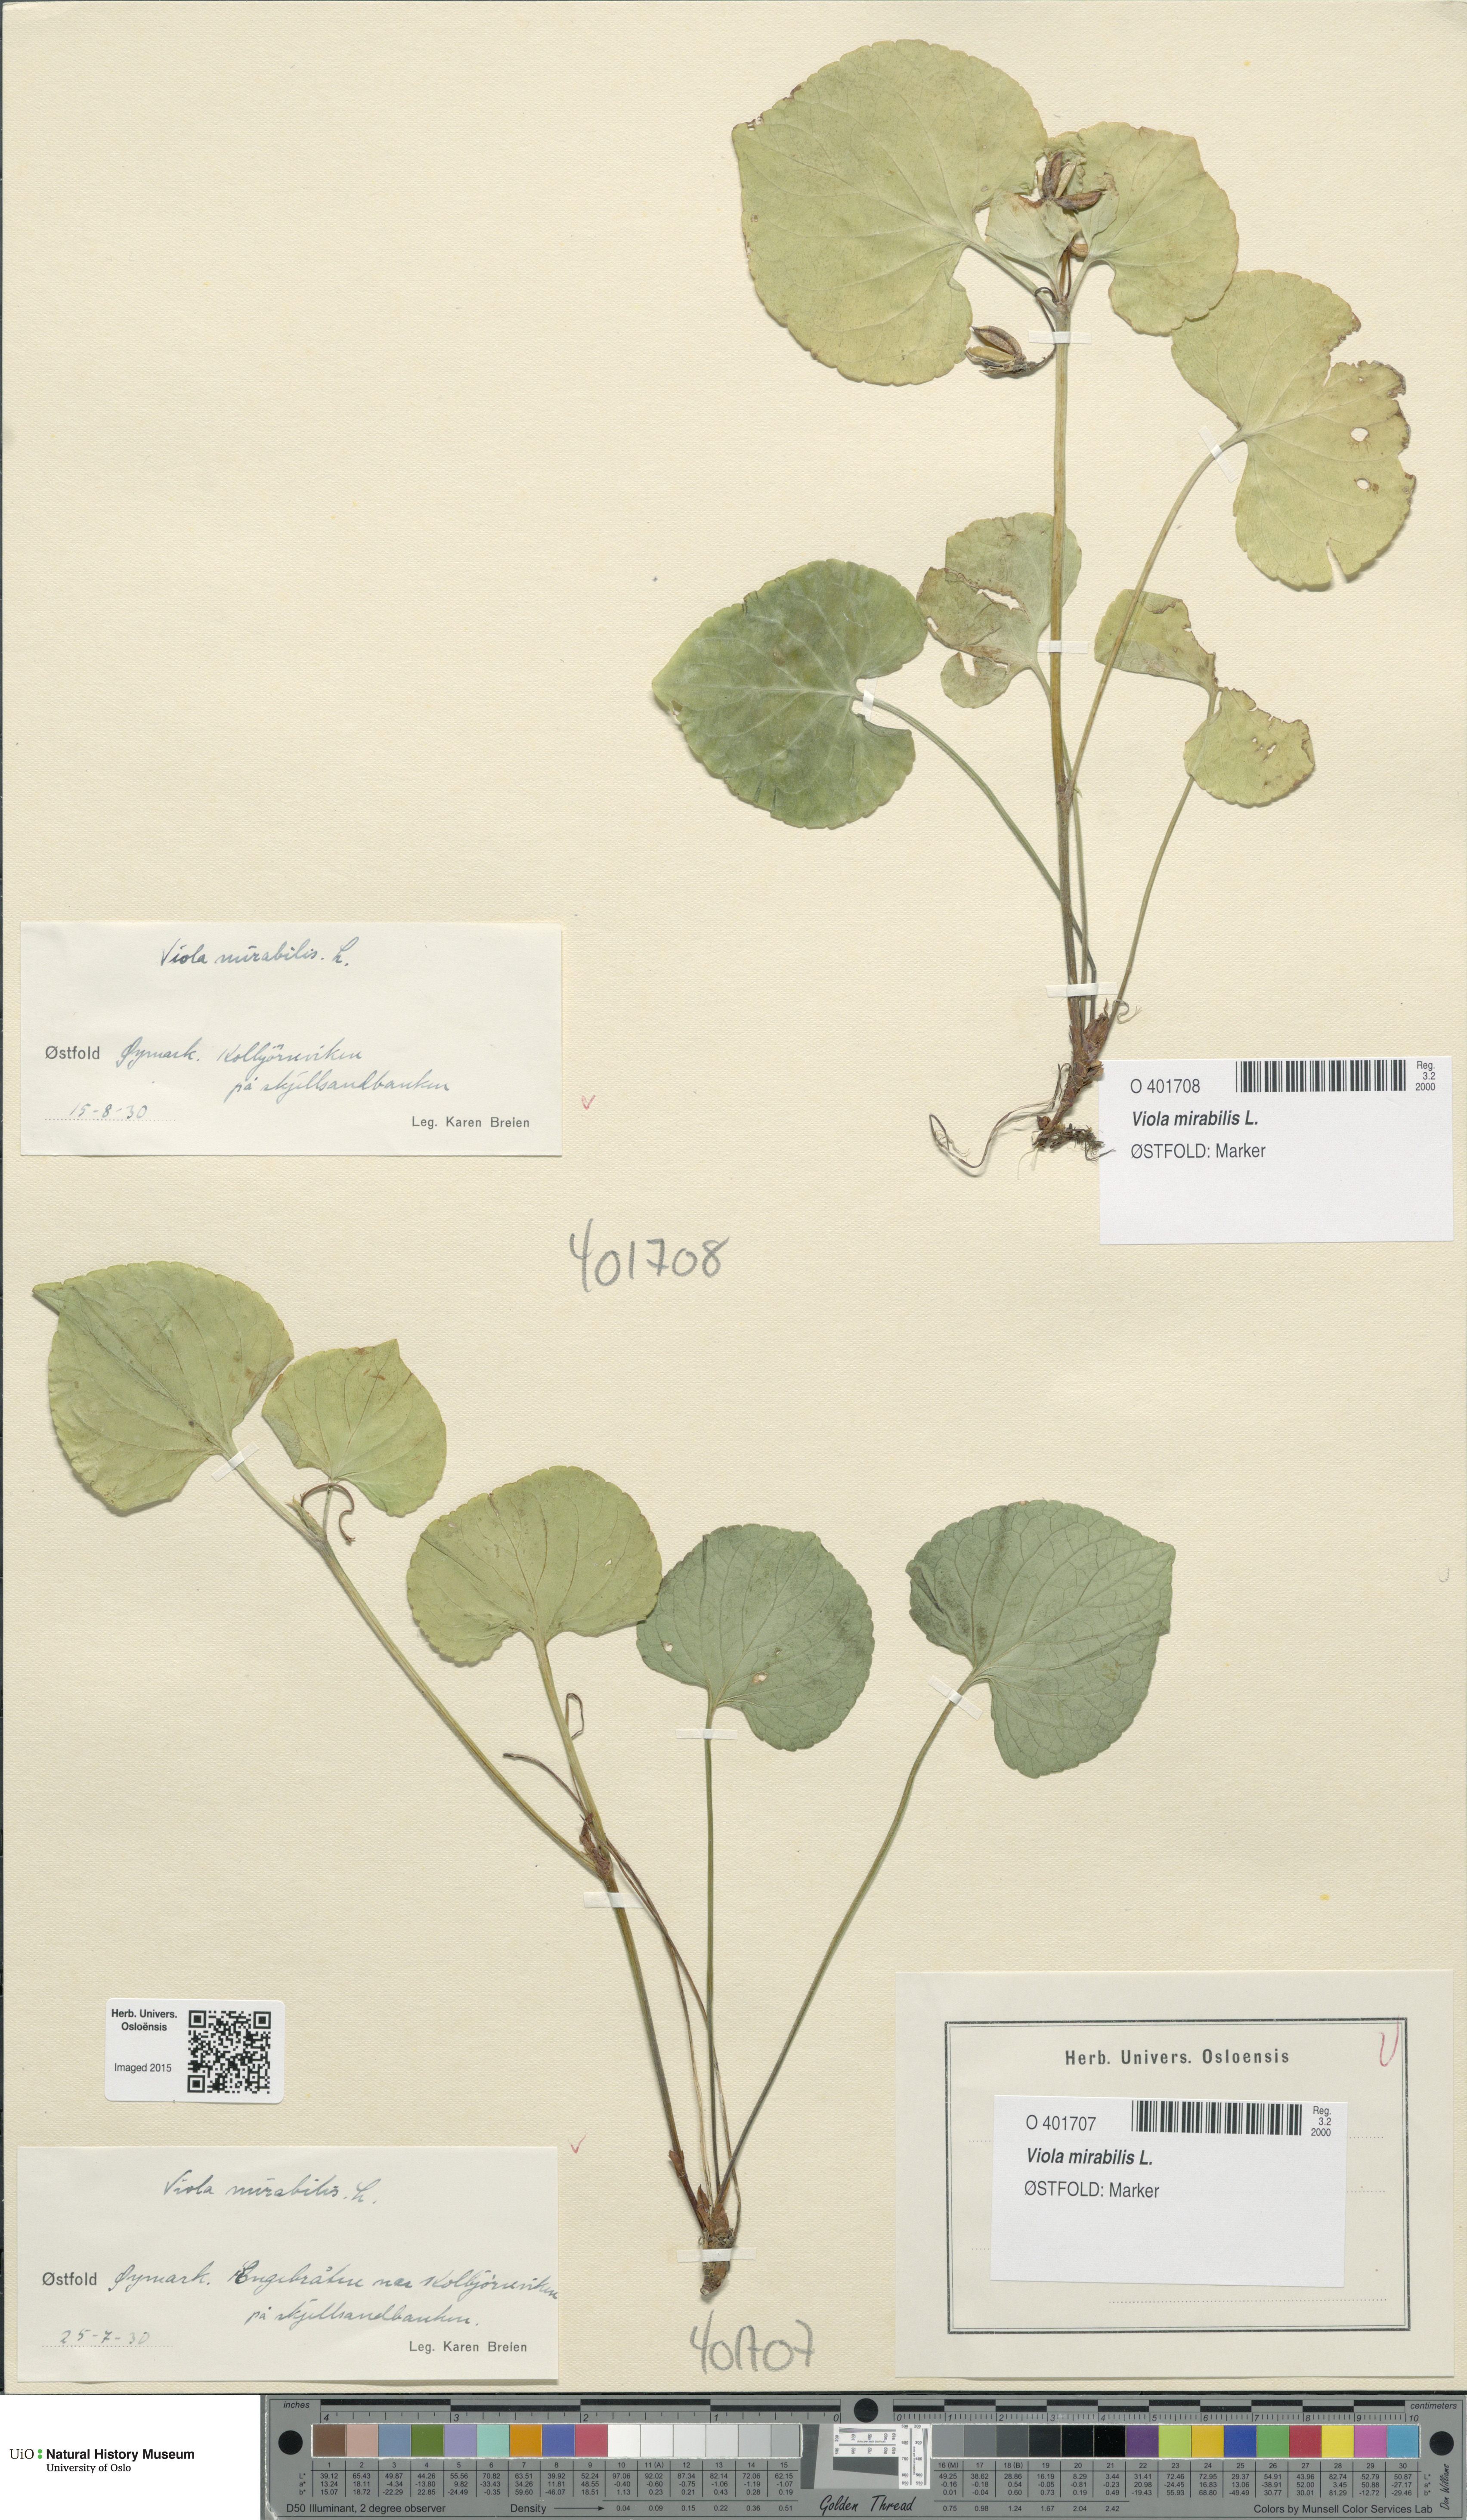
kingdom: Plantae
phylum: Tracheophyta
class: Magnoliopsida
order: Malpighiales
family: Violaceae
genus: Viola
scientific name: Viola mirabilis
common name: Wonder violet
